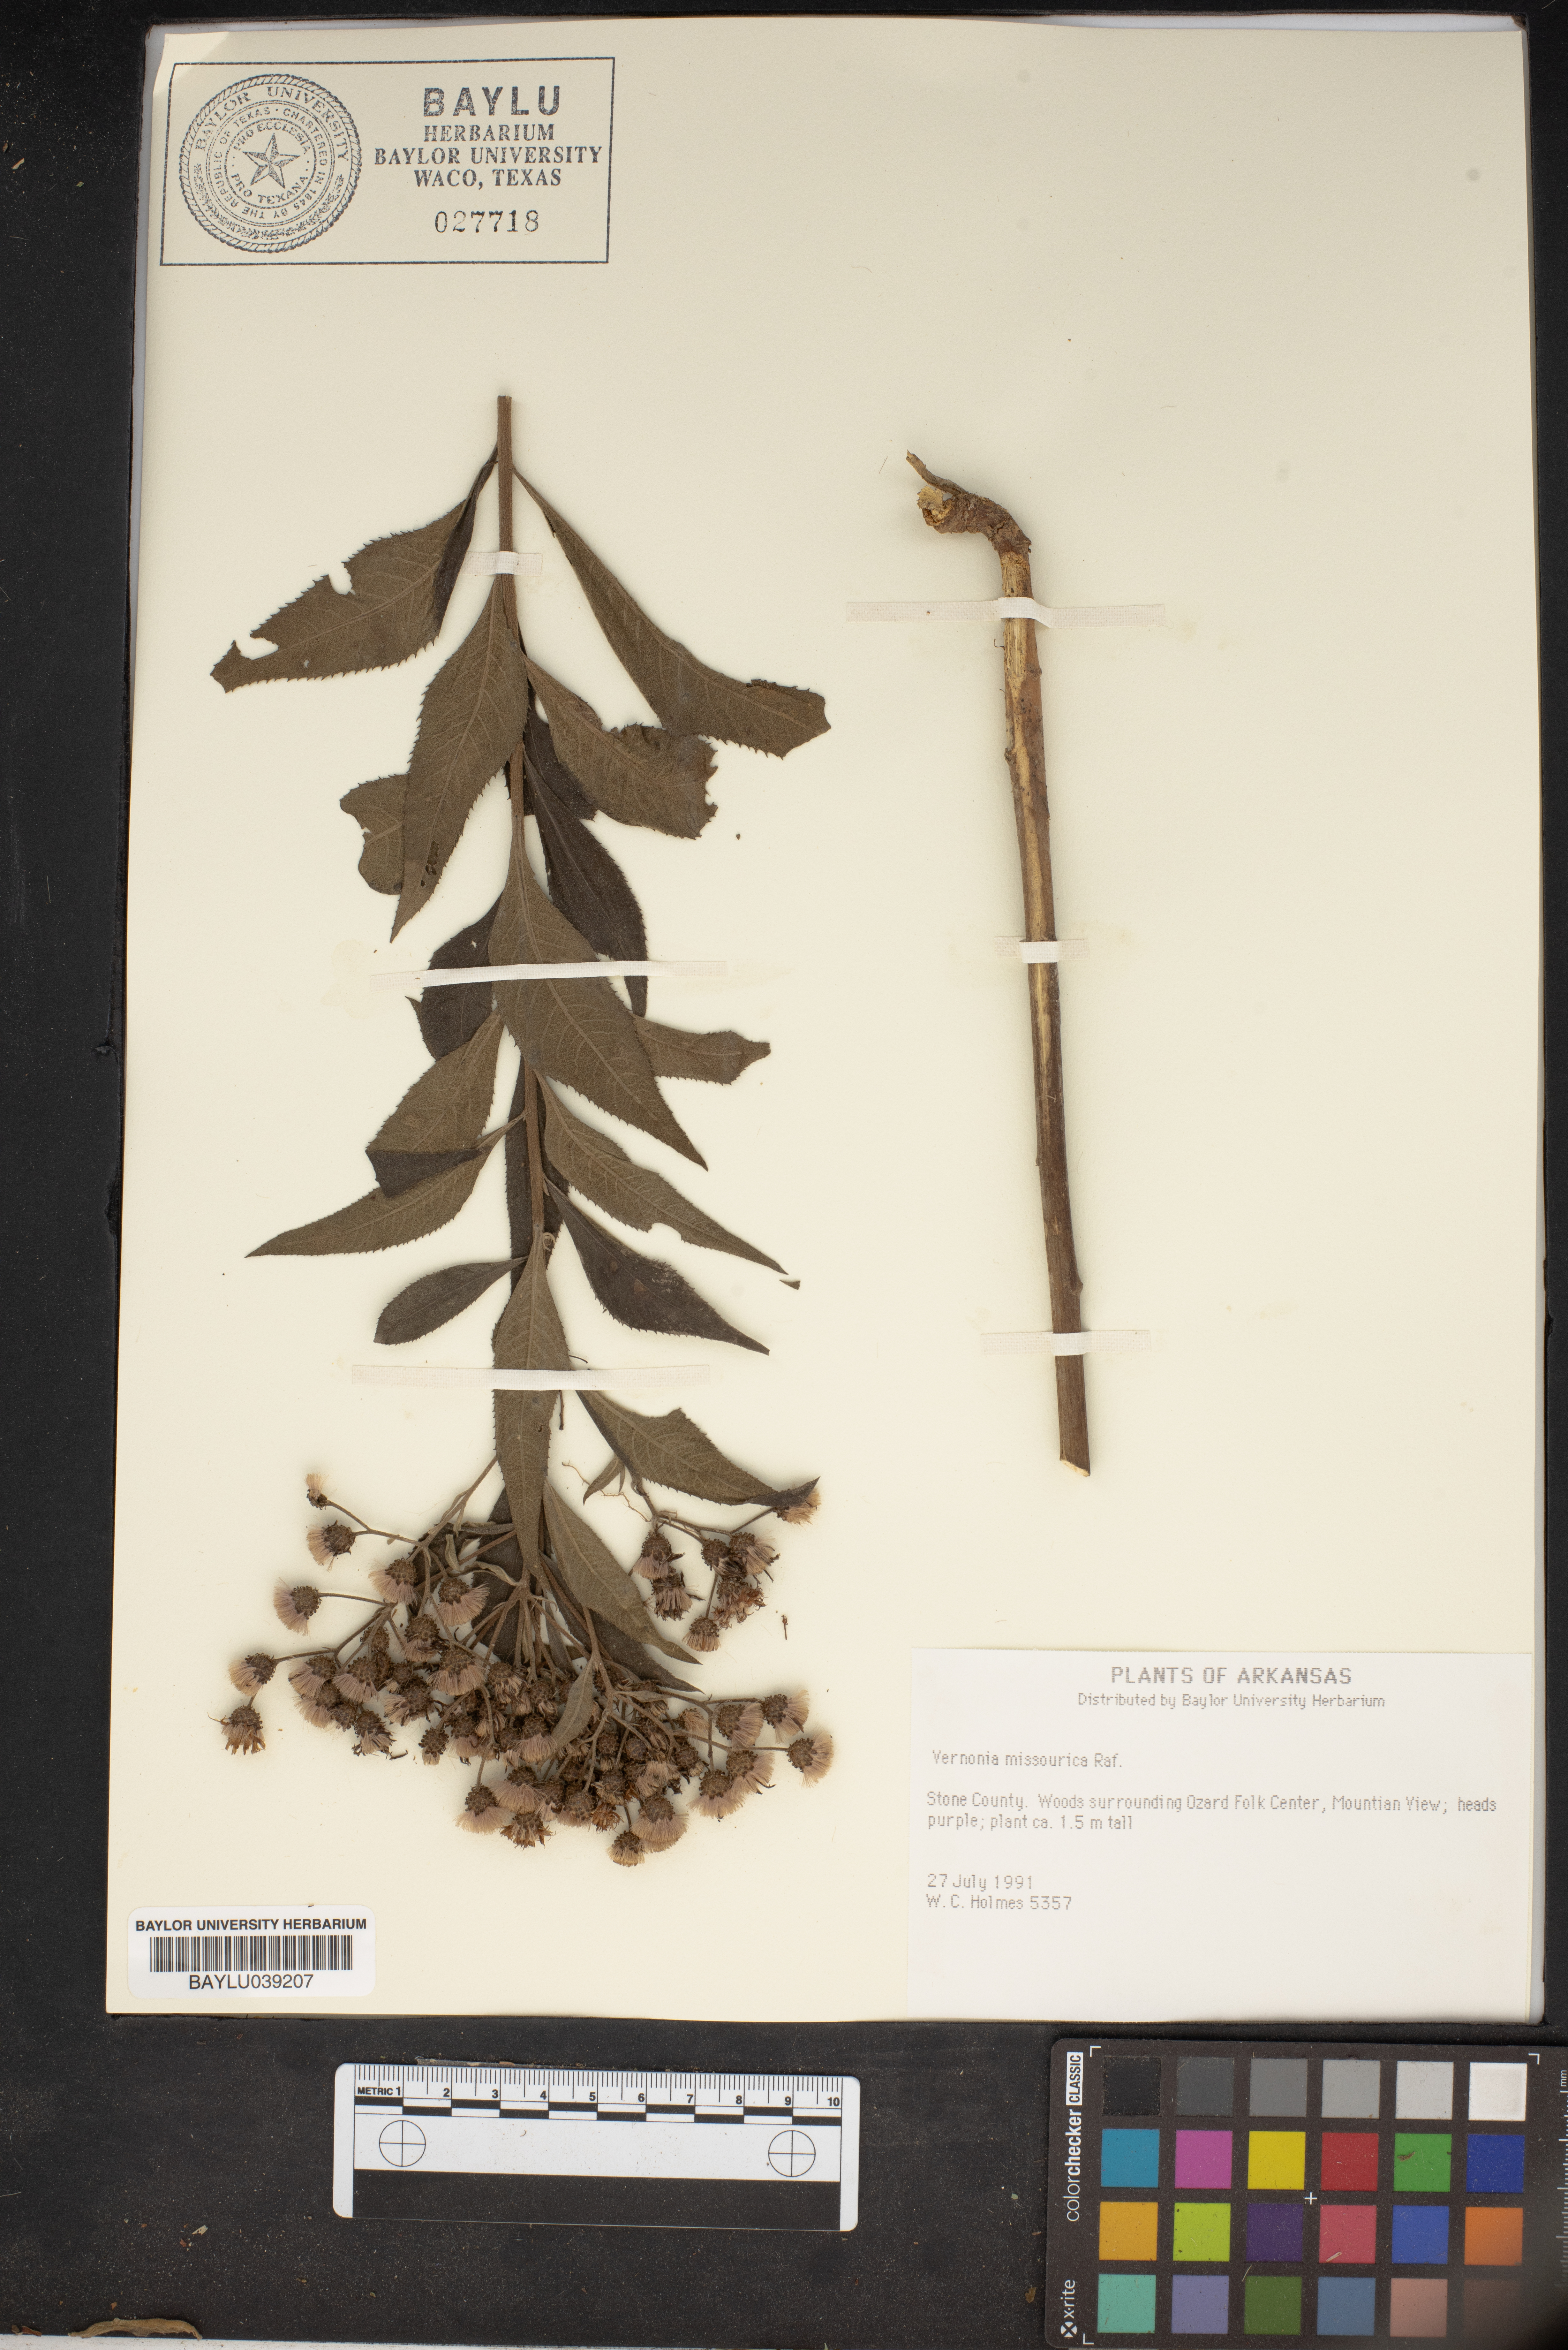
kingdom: Plantae
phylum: Tracheophyta
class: Magnoliopsida
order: Asterales
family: Asteraceae
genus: Vernonia
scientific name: Vernonia missurica
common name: Missouri ironweed
